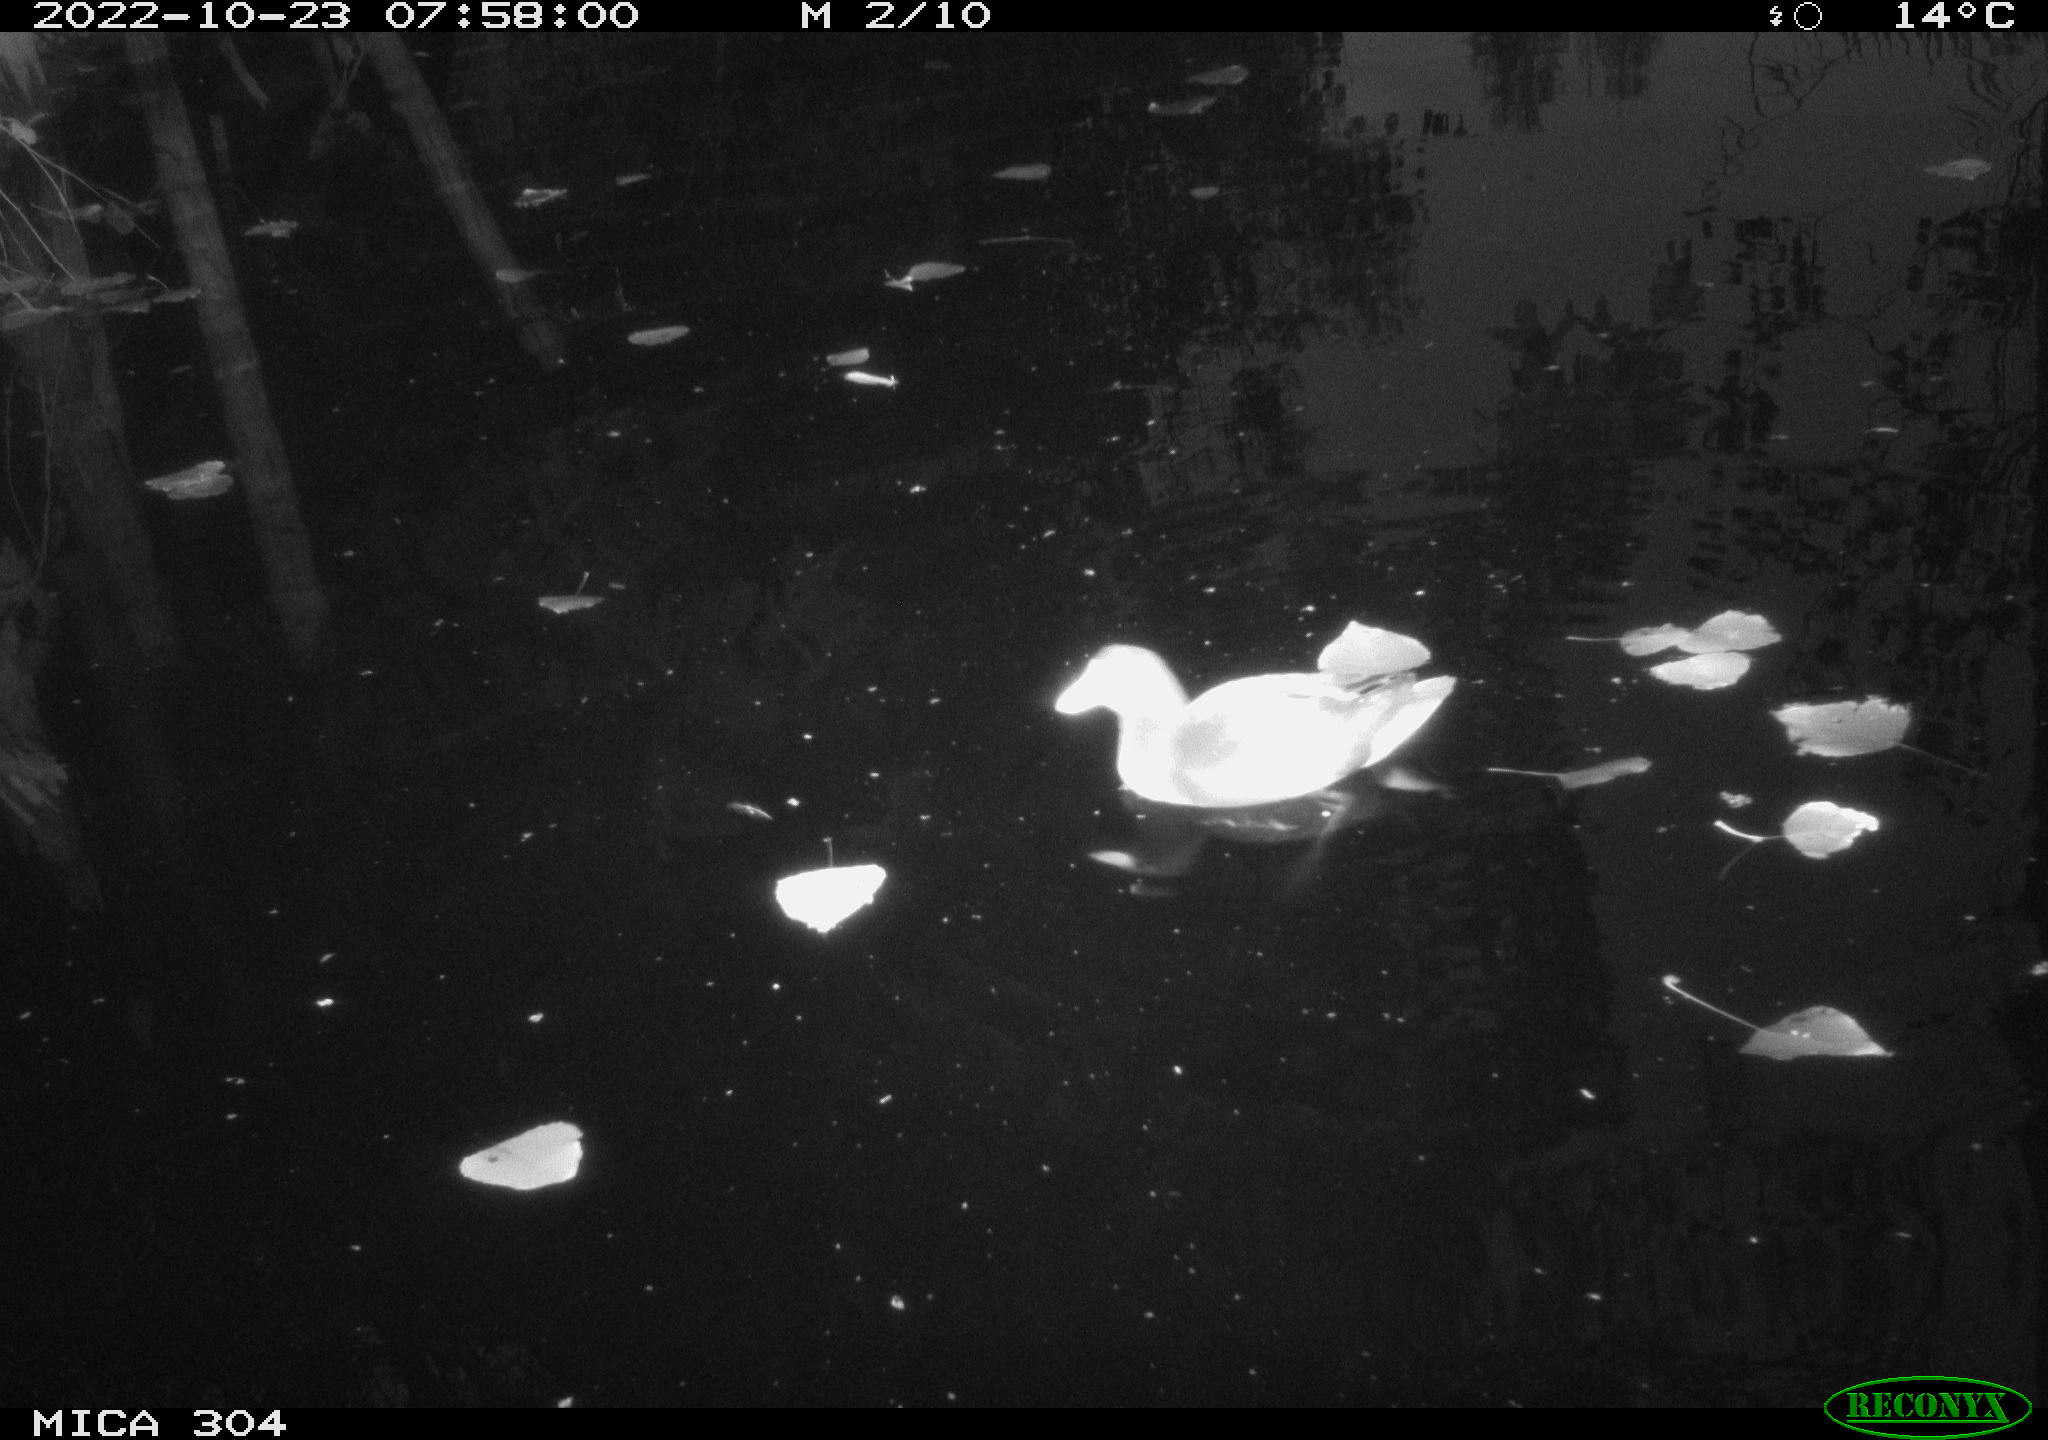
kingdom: Animalia
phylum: Chordata
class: Aves
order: Gruiformes
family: Rallidae
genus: Gallinula
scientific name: Gallinula chloropus
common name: Common moorhen
